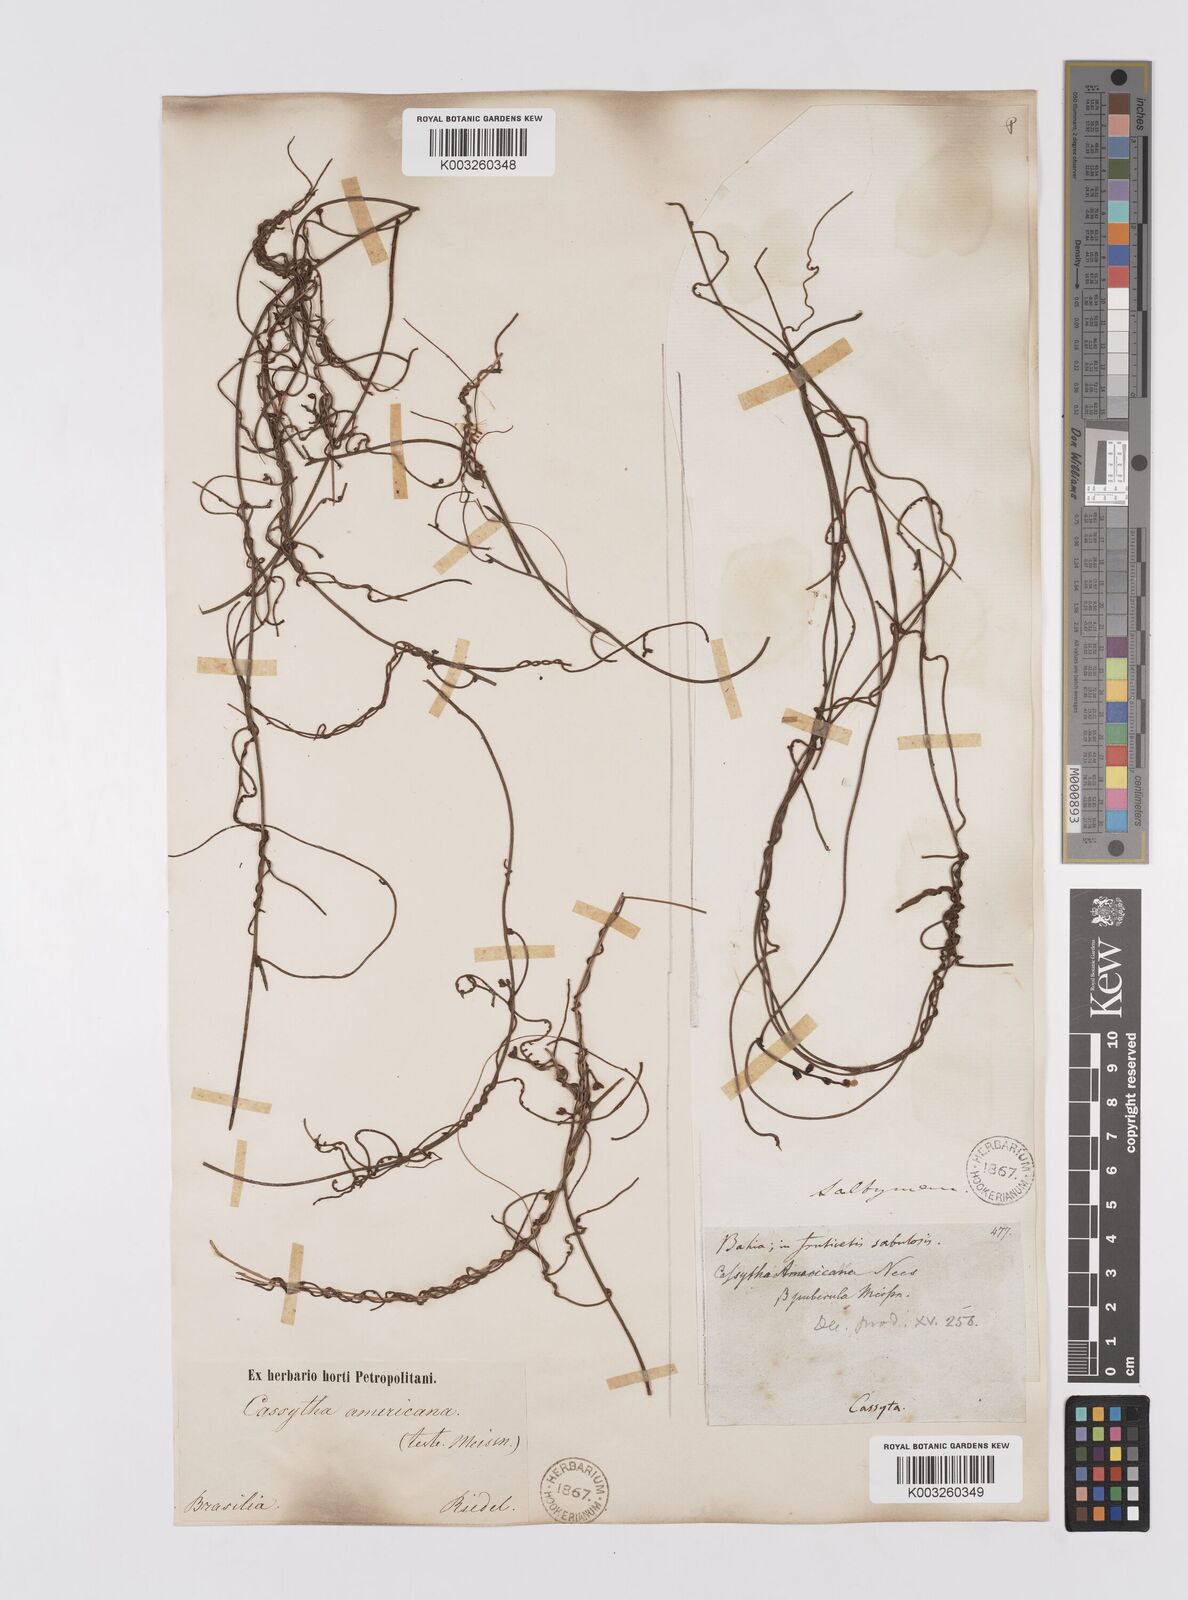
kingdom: Plantae
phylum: Tracheophyta
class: Magnoliopsida
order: Laurales
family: Lauraceae
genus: Cassytha
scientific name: Cassytha filiformis
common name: Dodder-laurel
